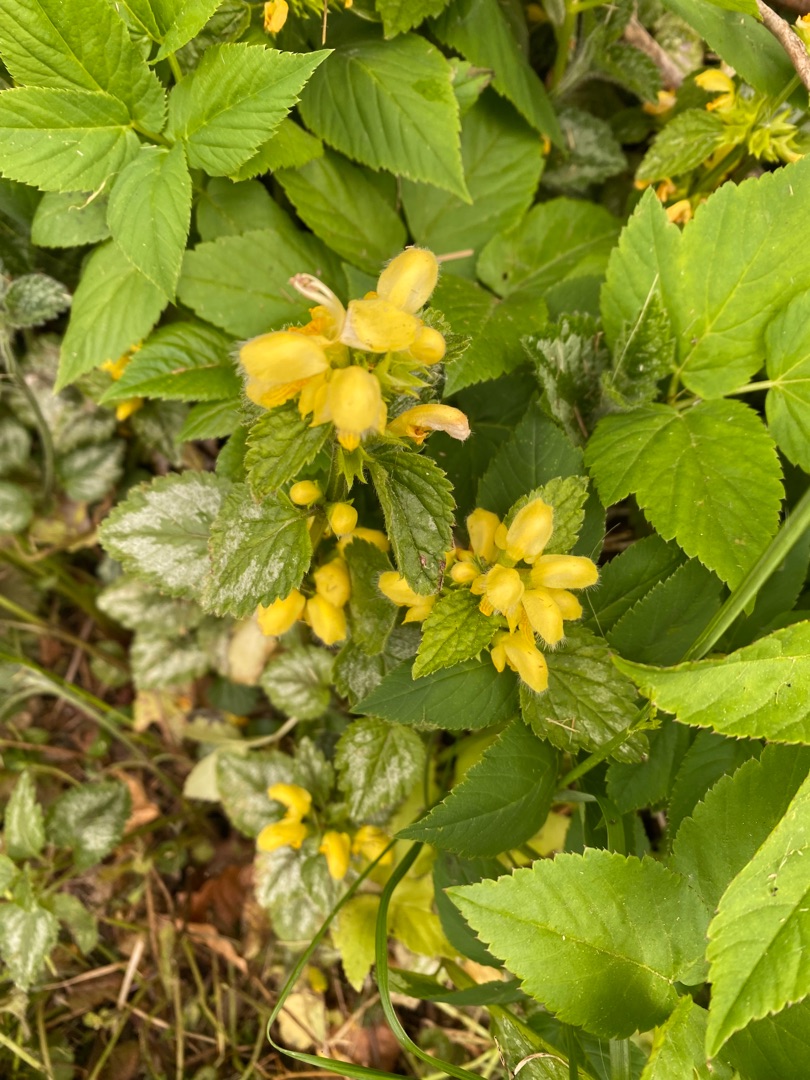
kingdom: Plantae
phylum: Tracheophyta
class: Magnoliopsida
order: Lamiales
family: Lamiaceae
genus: Lamium
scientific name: Lamium galeobdolon
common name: Have-guldnælde
